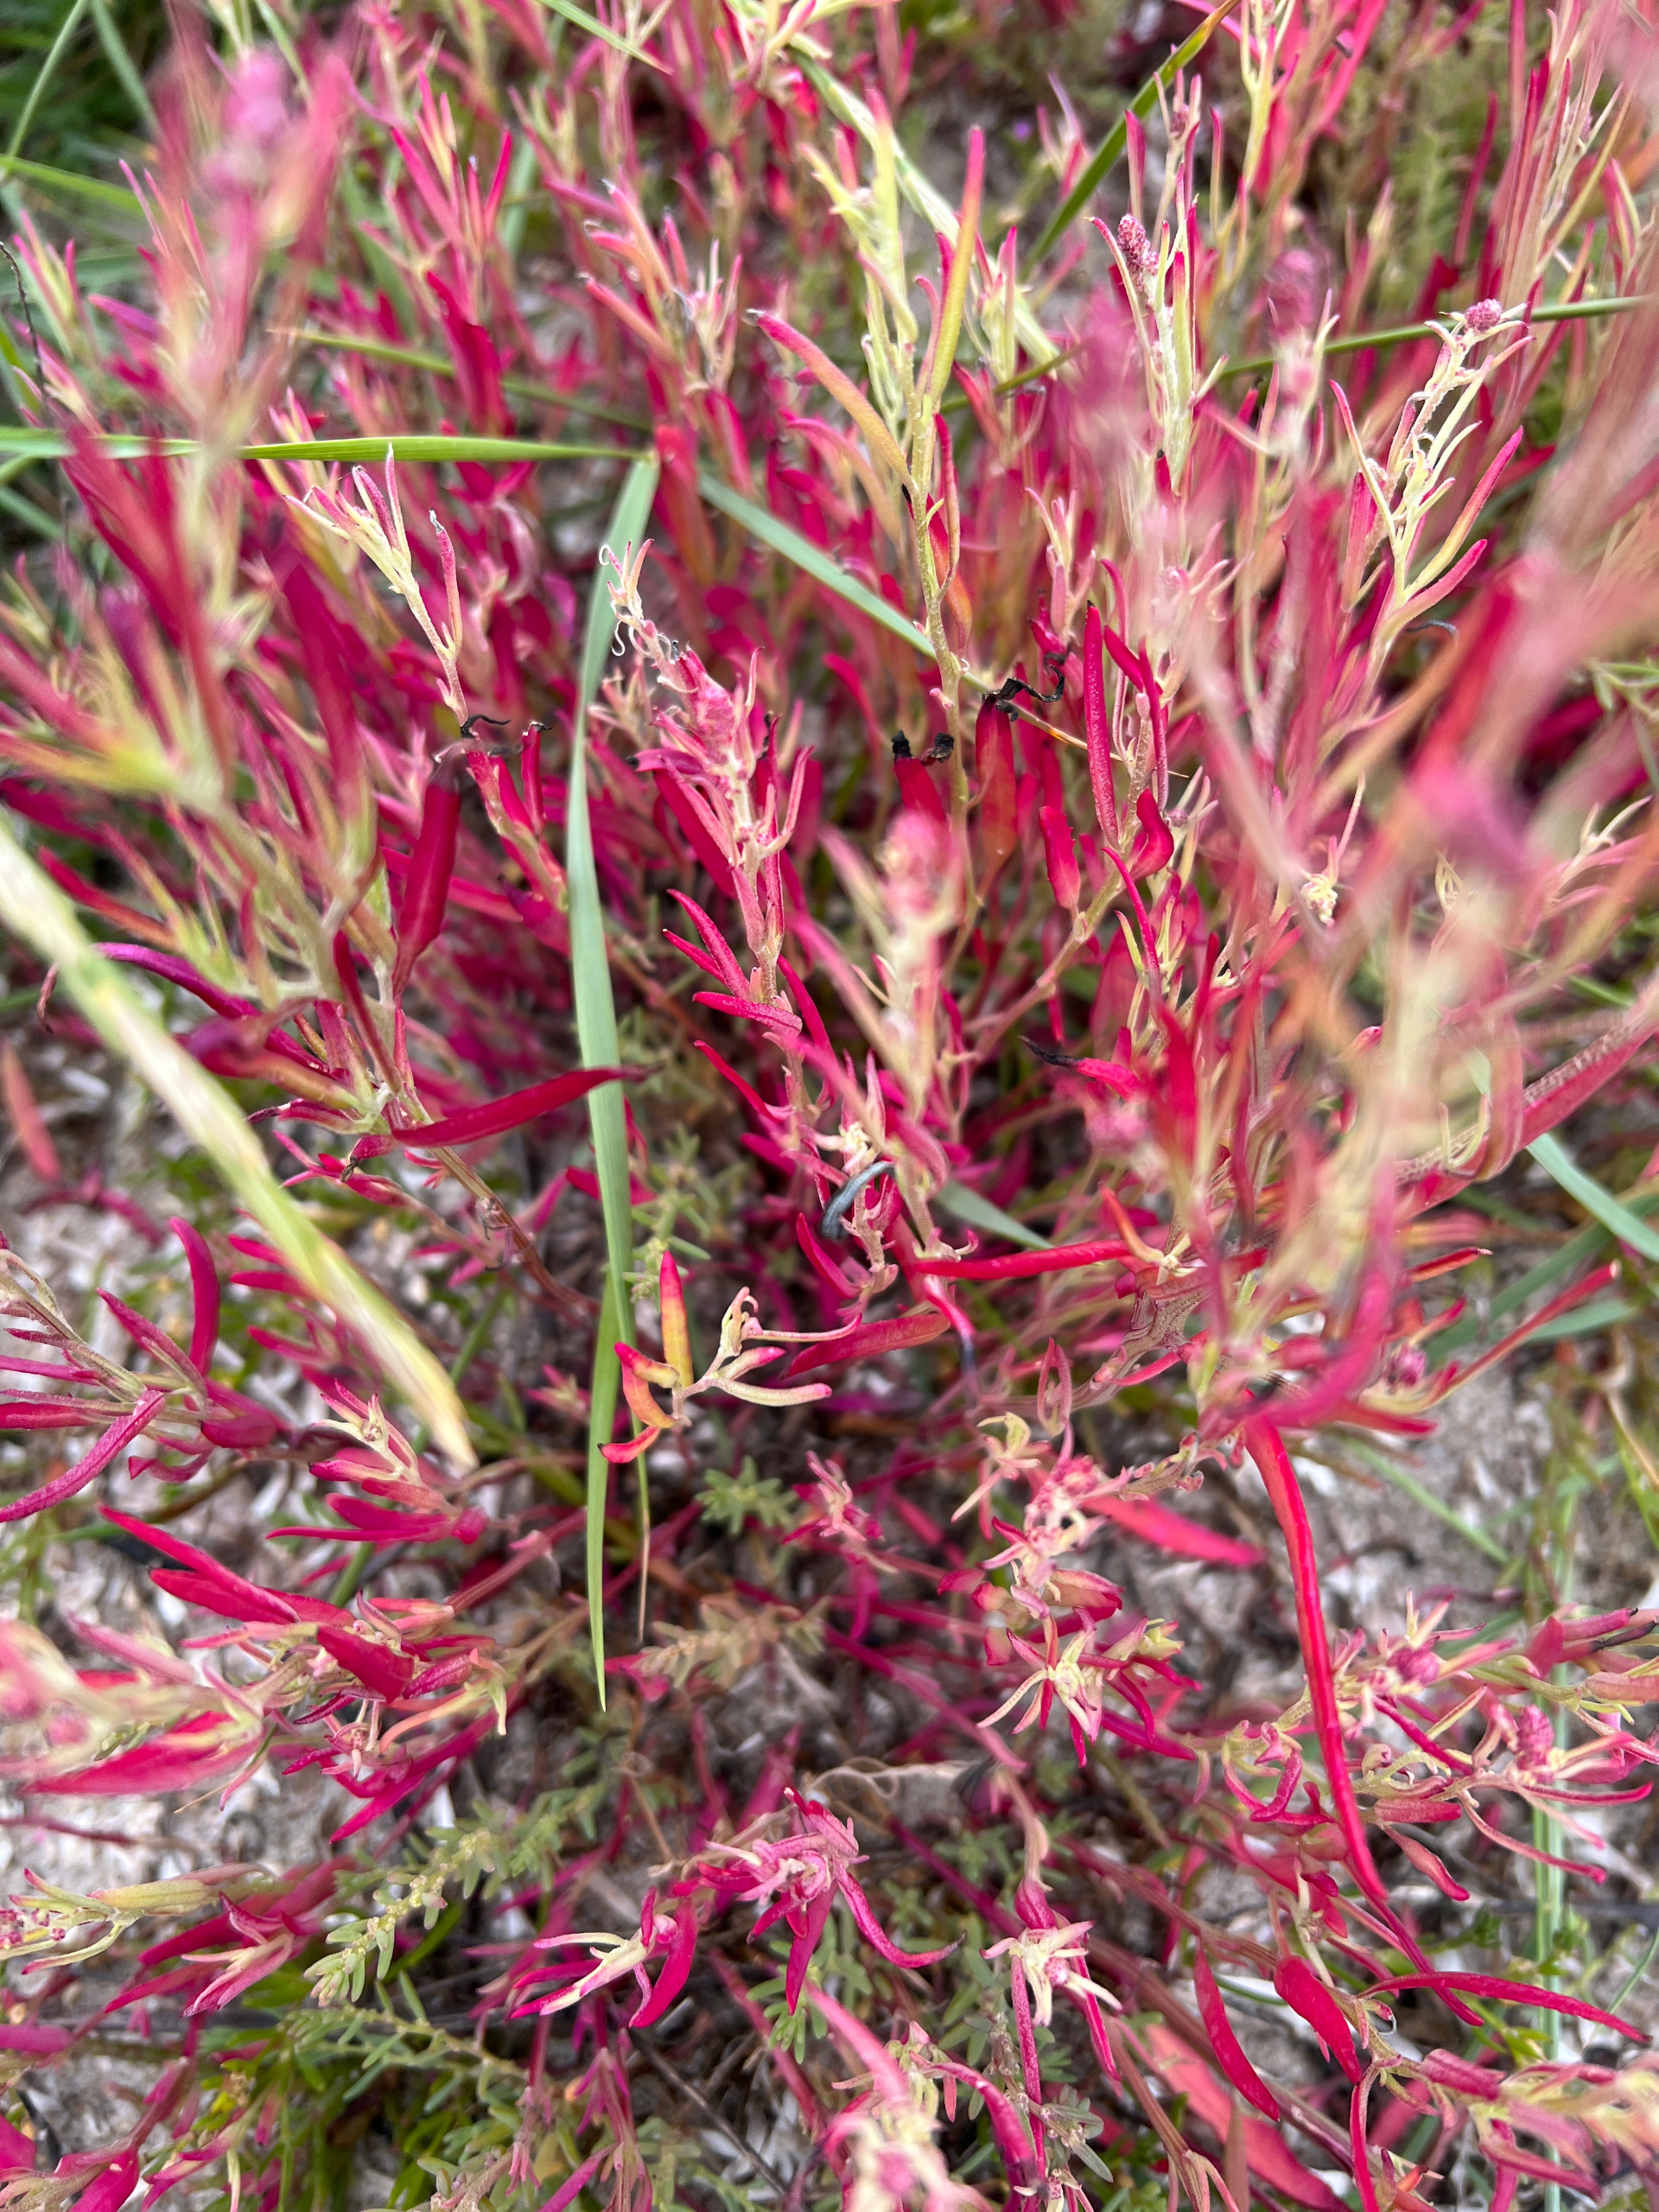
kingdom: Plantae
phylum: Tracheophyta
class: Magnoliopsida
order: Caryophyllales
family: Amaranthaceae
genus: Suaeda
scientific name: Suaeda maritima
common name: Strandgåsefod
